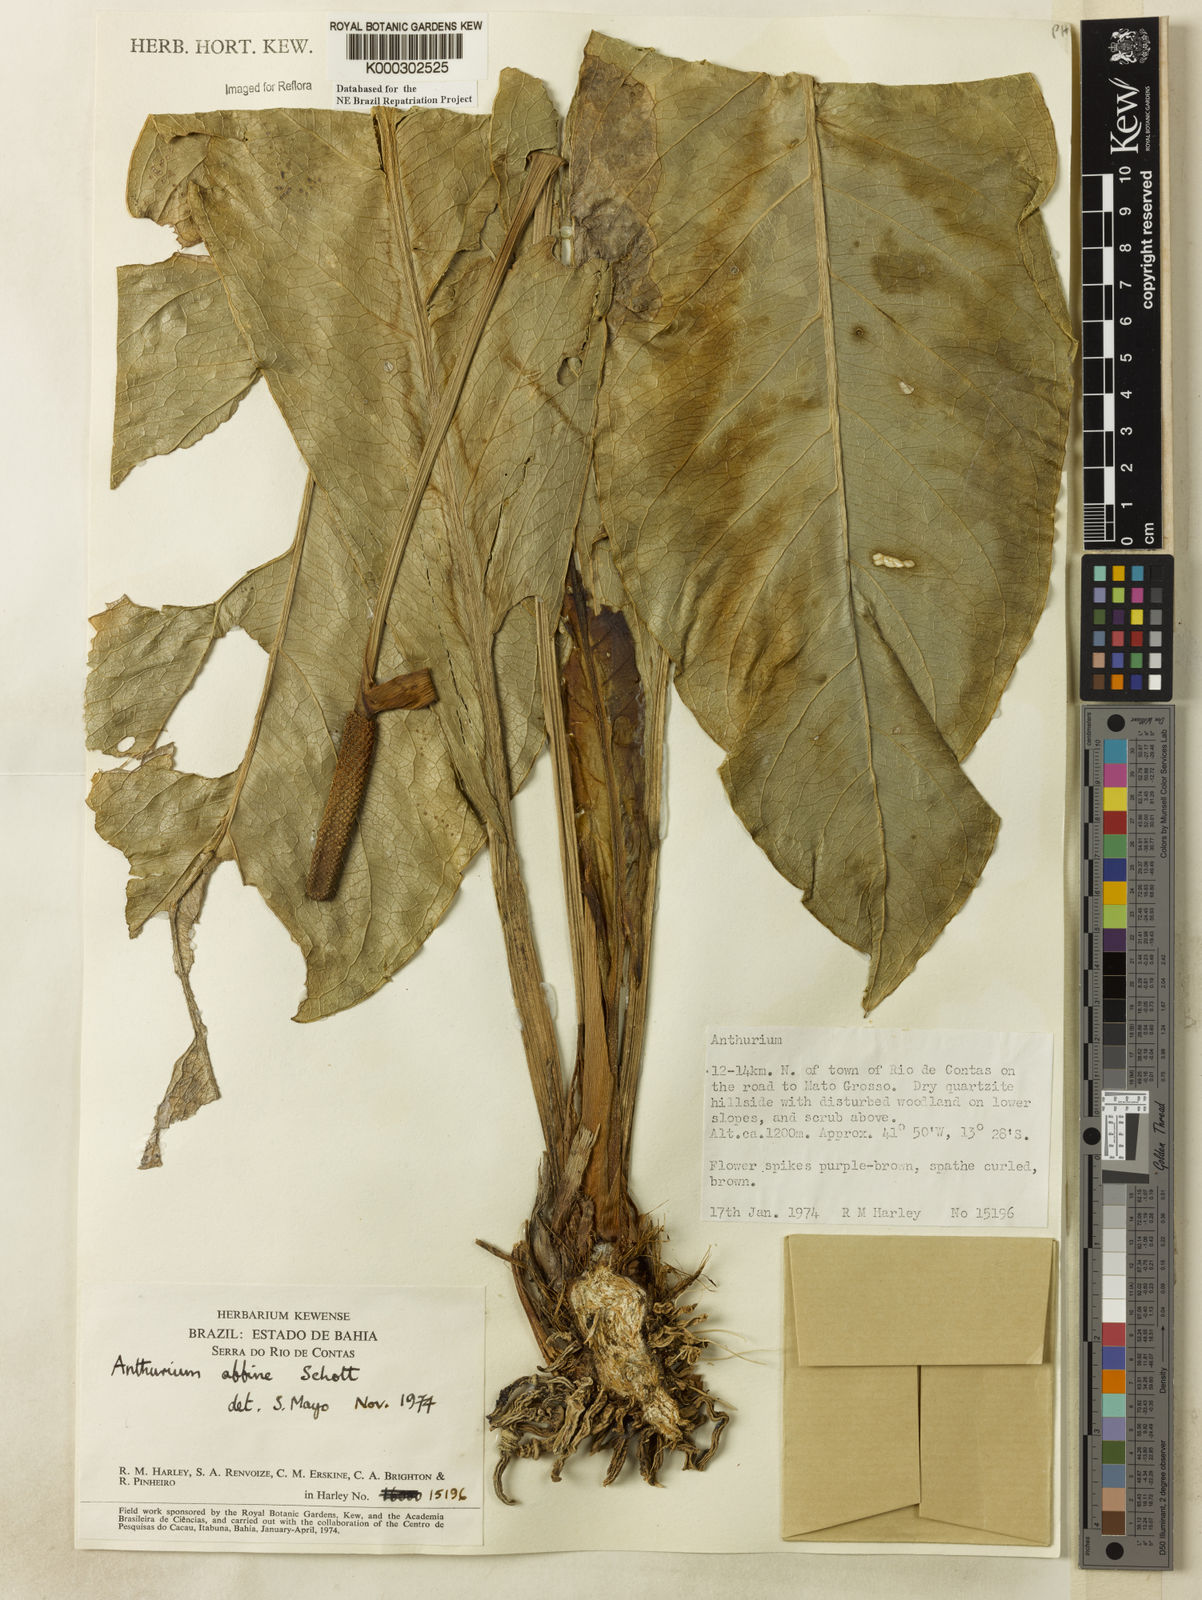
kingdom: Plantae
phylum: Tracheophyta
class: Liliopsida
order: Alismatales
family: Araceae
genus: Anthurium
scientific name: Anthurium affine
